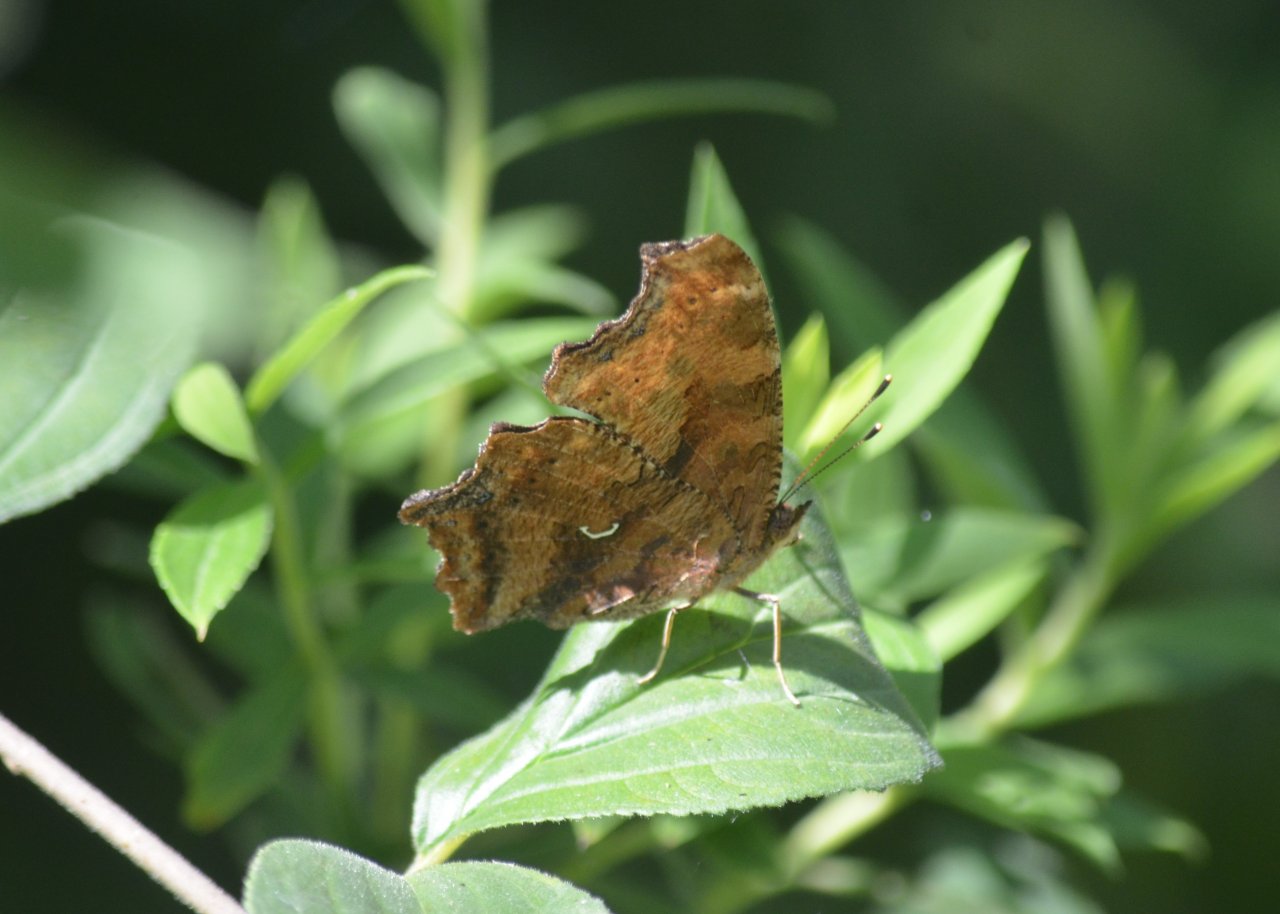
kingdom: Animalia
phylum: Arthropoda
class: Insecta
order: Lepidoptera
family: Nymphalidae
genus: Polygonia
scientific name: Polygonia comma
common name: Eastern Comma
